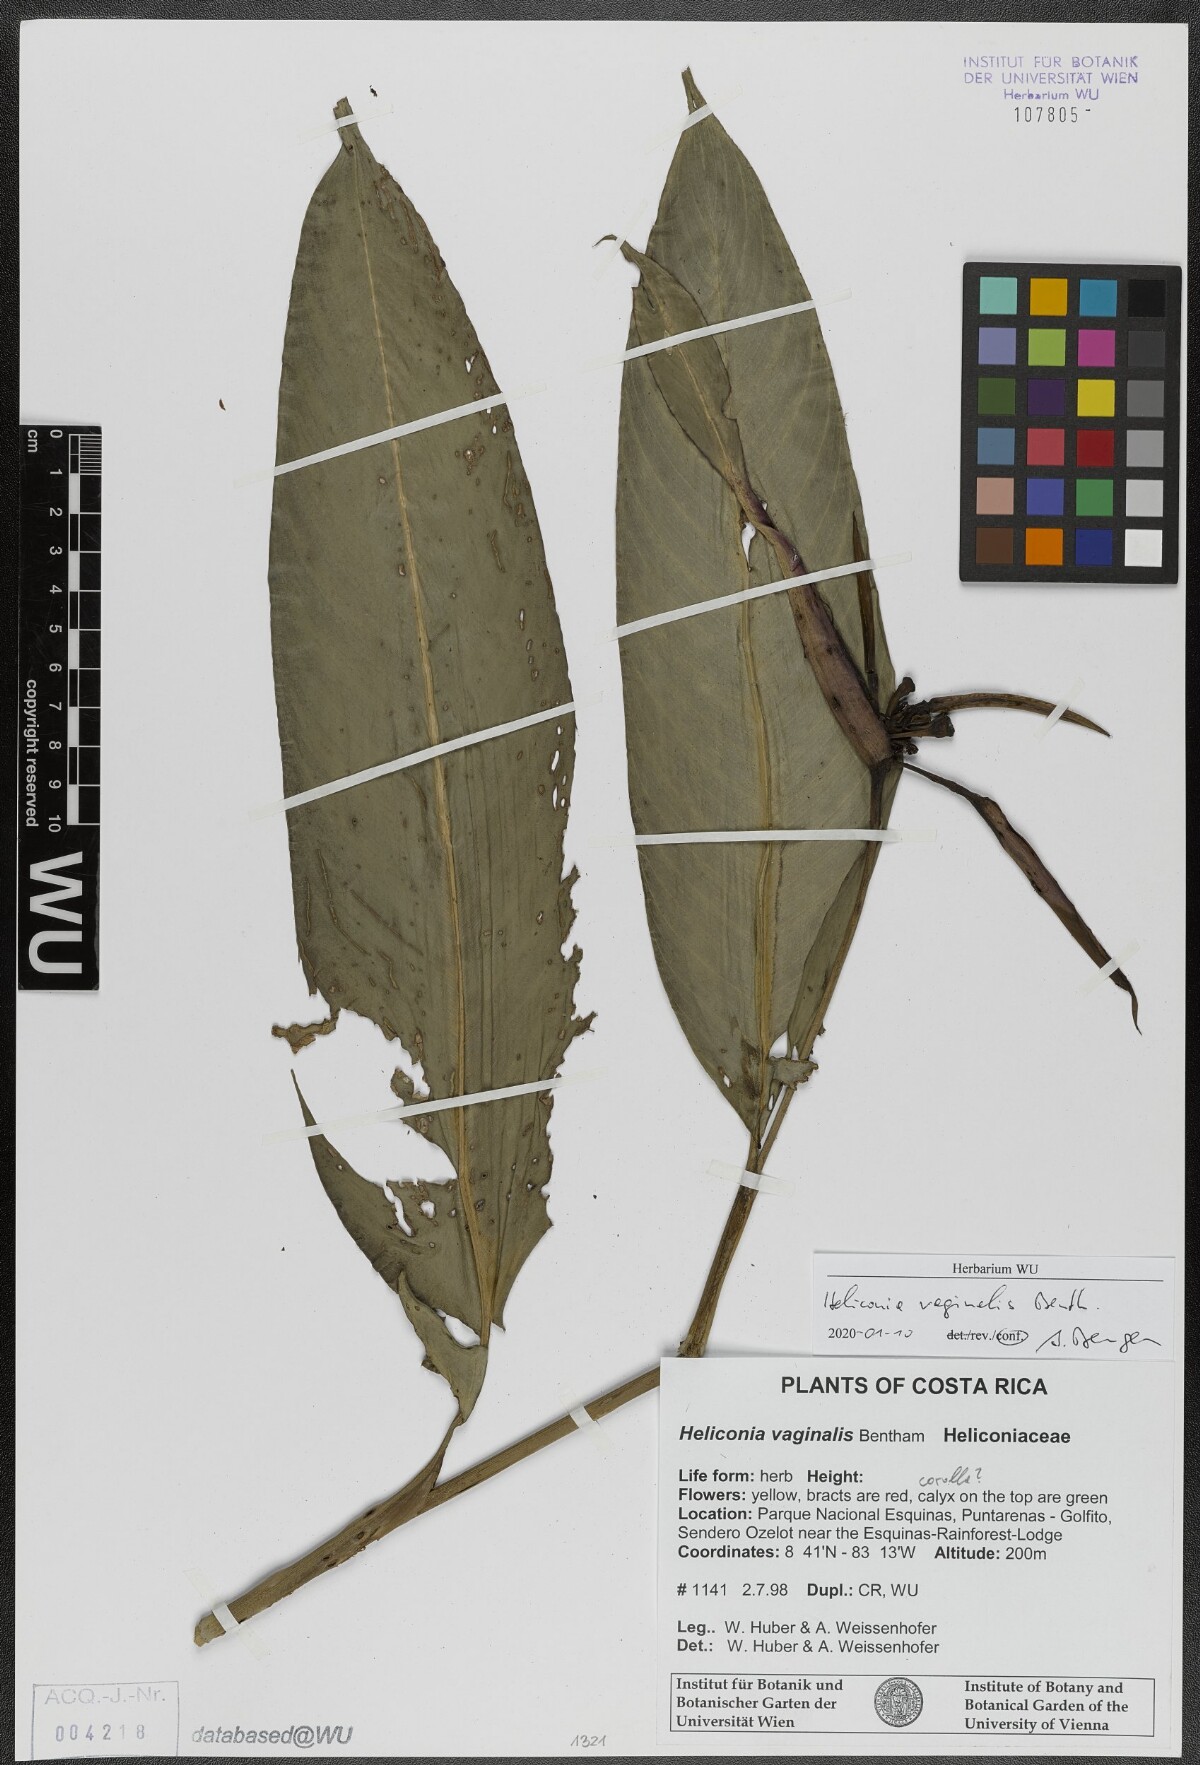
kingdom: Plantae
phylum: Tracheophyta
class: Liliopsida
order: Zingiberales
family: Heliconiaceae
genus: Heliconia
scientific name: Heliconia vaginalis
